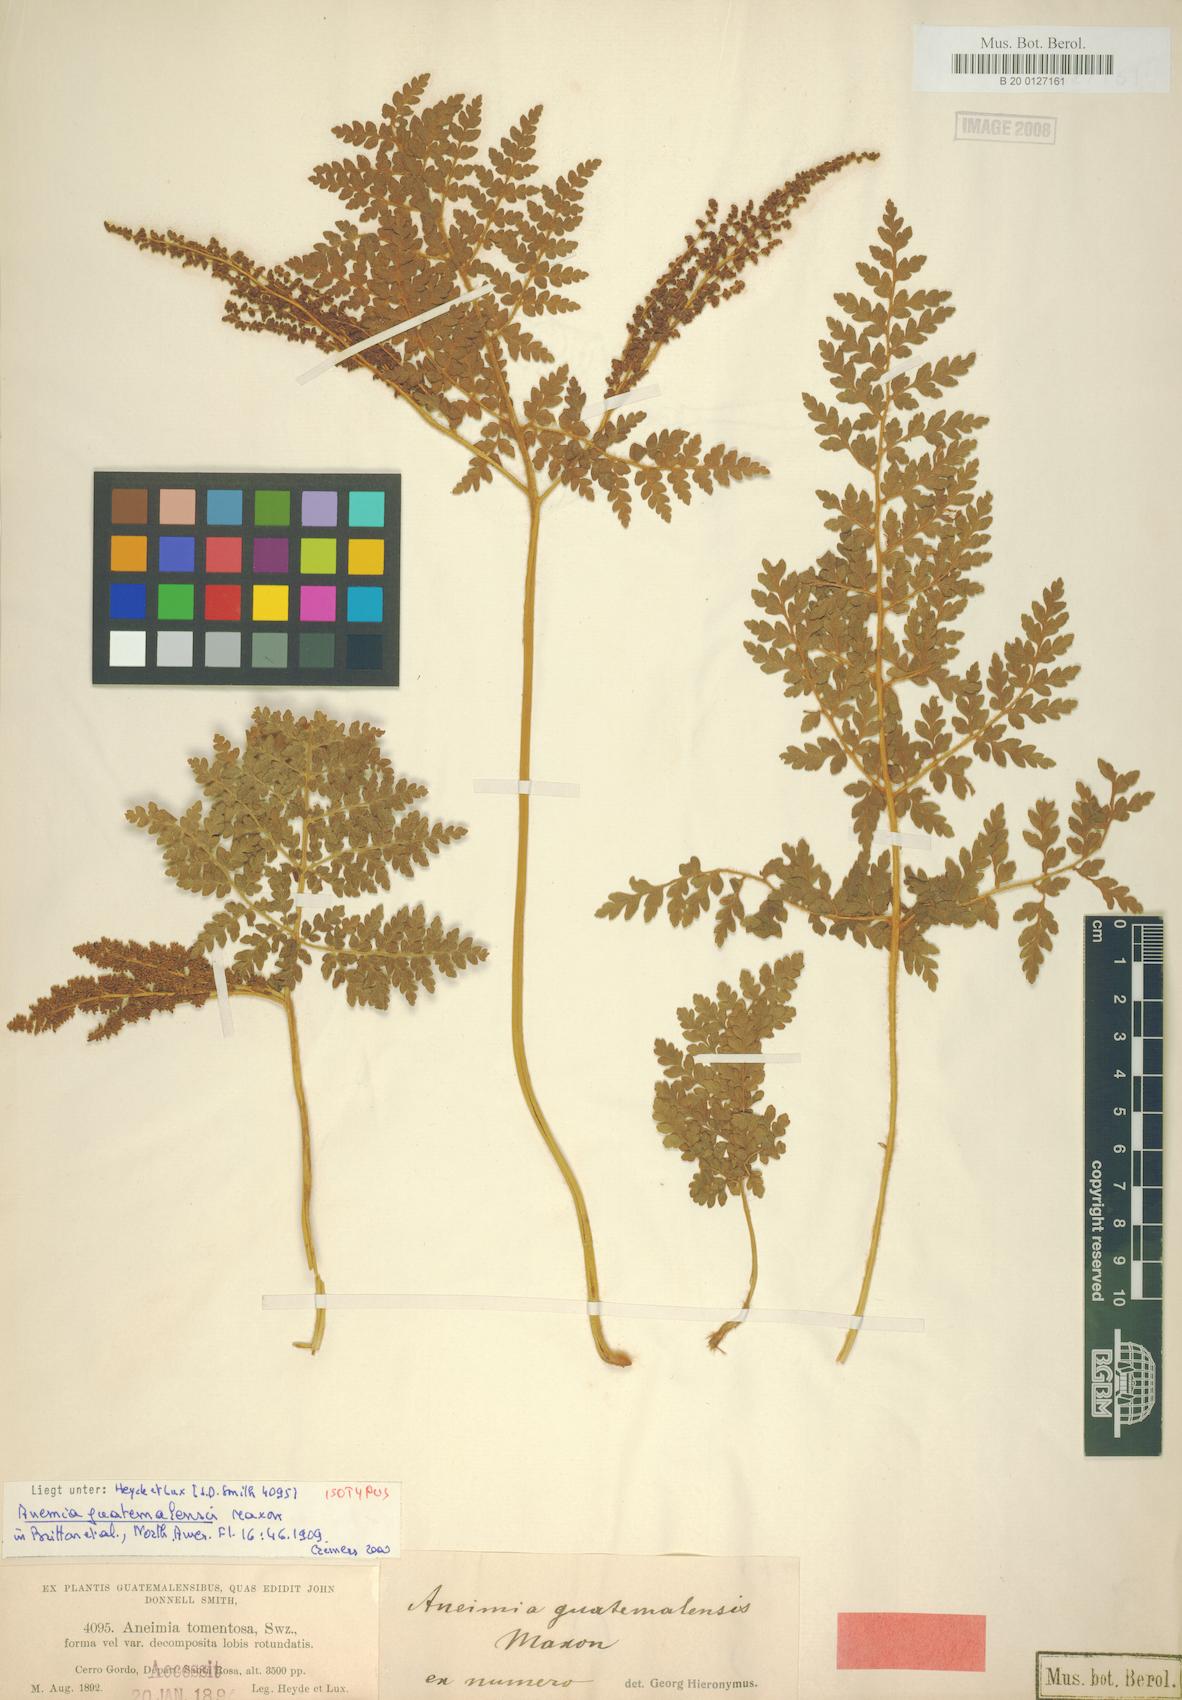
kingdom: Plantae
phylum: Tracheophyta
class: Polypodiopsida
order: Schizaeales
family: Anemiaceae
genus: Anemia
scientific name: Anemia guatemalensis
